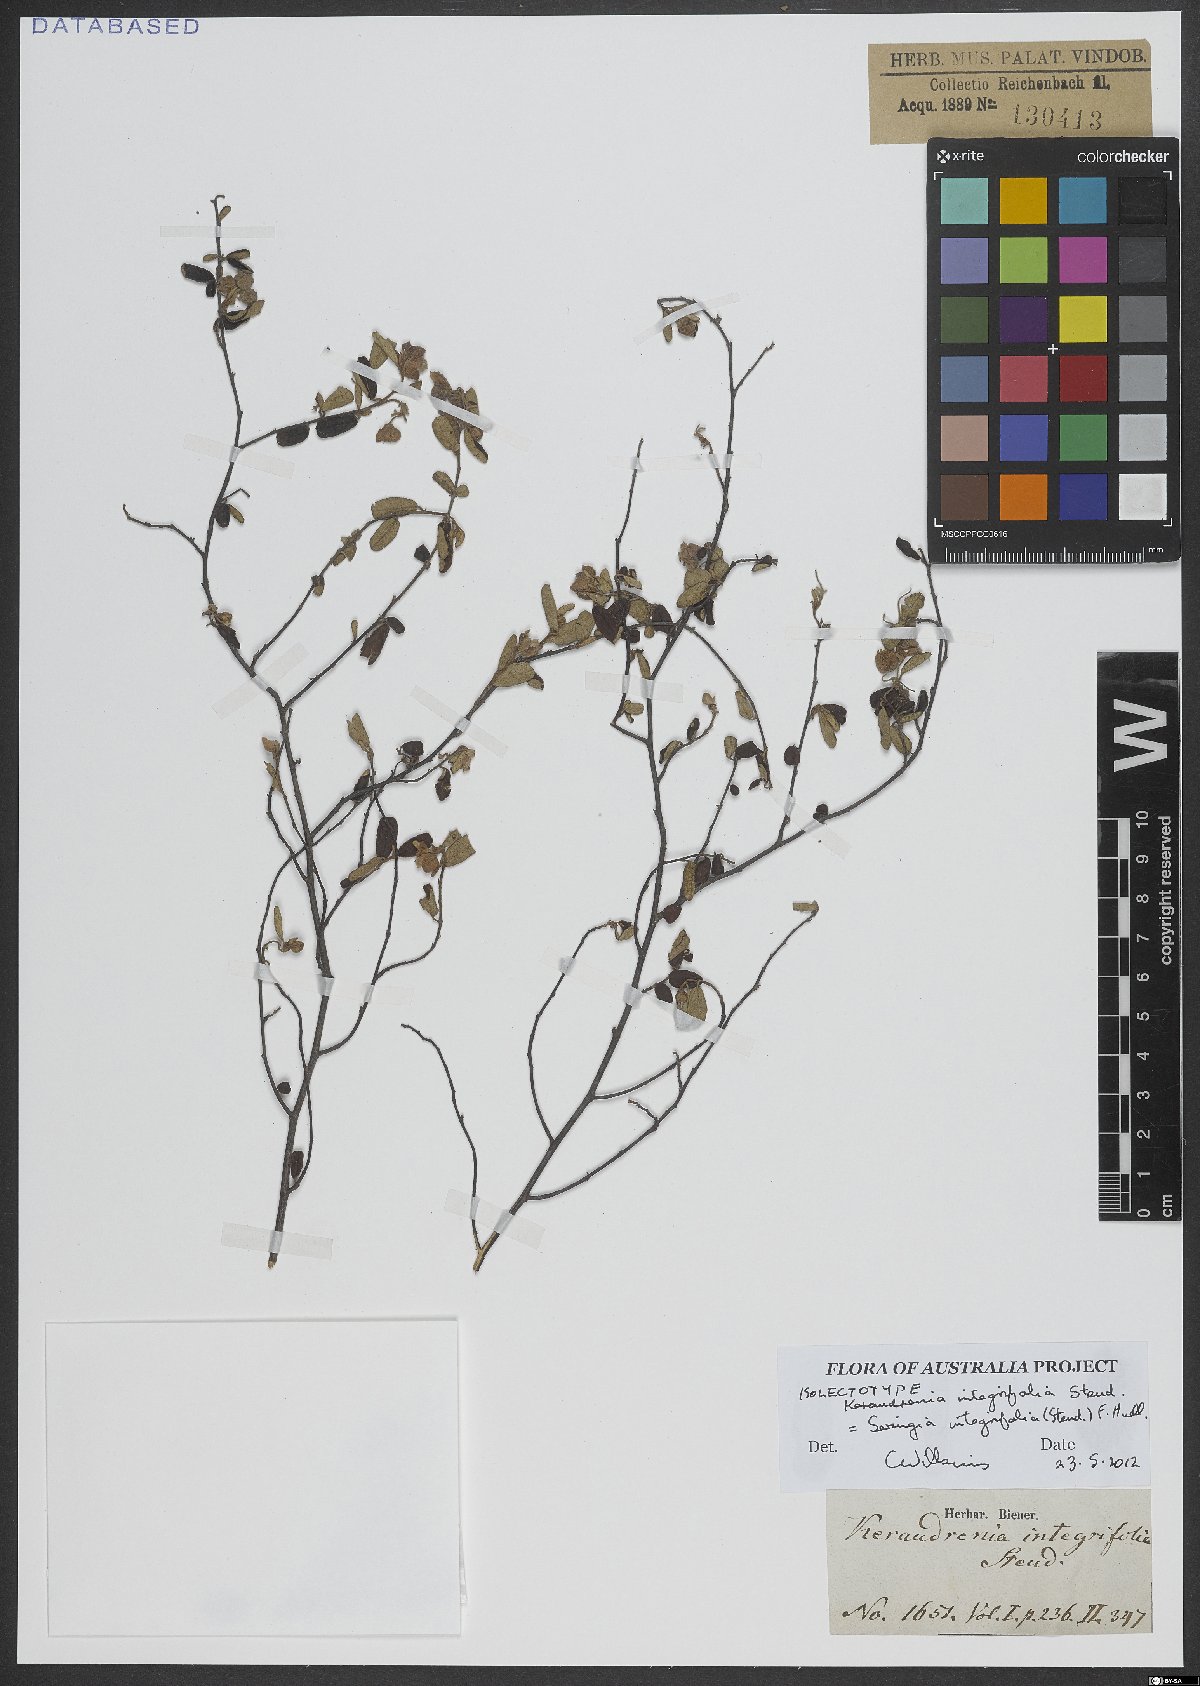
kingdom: Plantae
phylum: Tracheophyta
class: Magnoliopsida
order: Malvales
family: Malvaceae
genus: Seringia
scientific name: Seringia integrifolia
